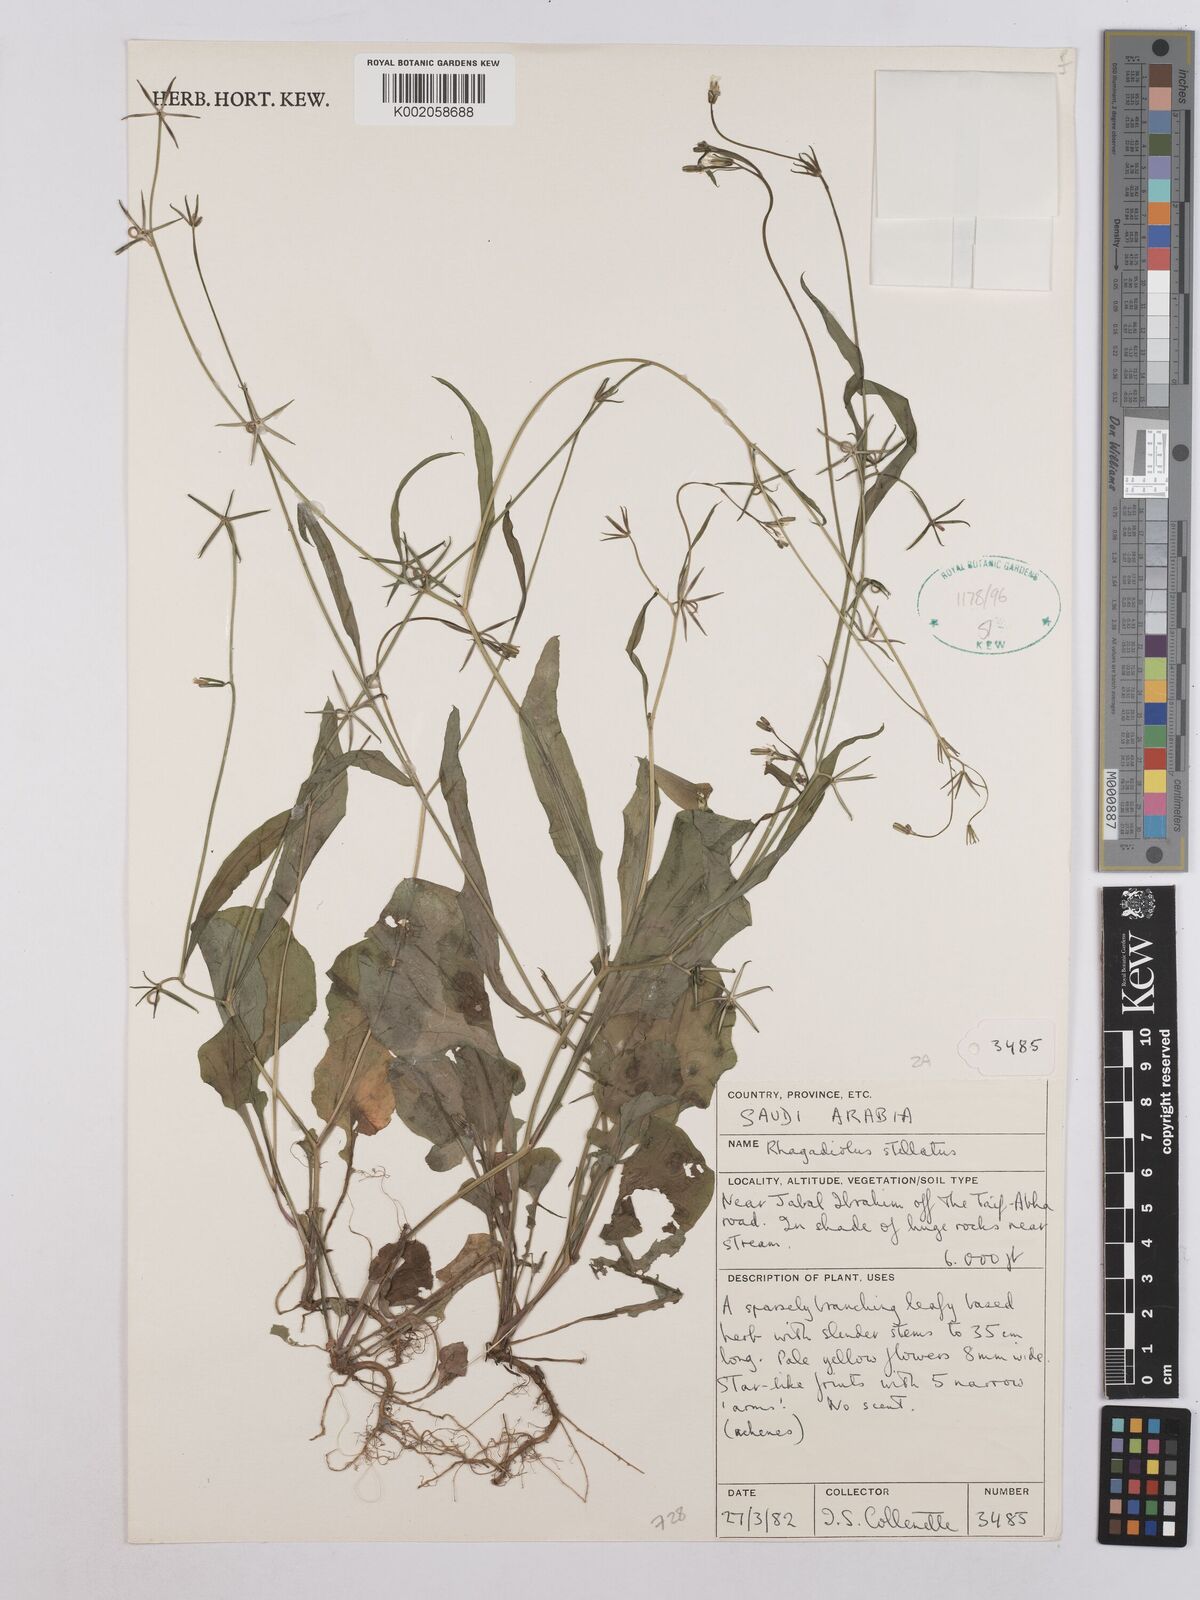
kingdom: Plantae
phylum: Tracheophyta
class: Magnoliopsida
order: Asterales
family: Asteraceae
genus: Rhagadiolus
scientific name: Rhagadiolus stellatus
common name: Star hawkbit
